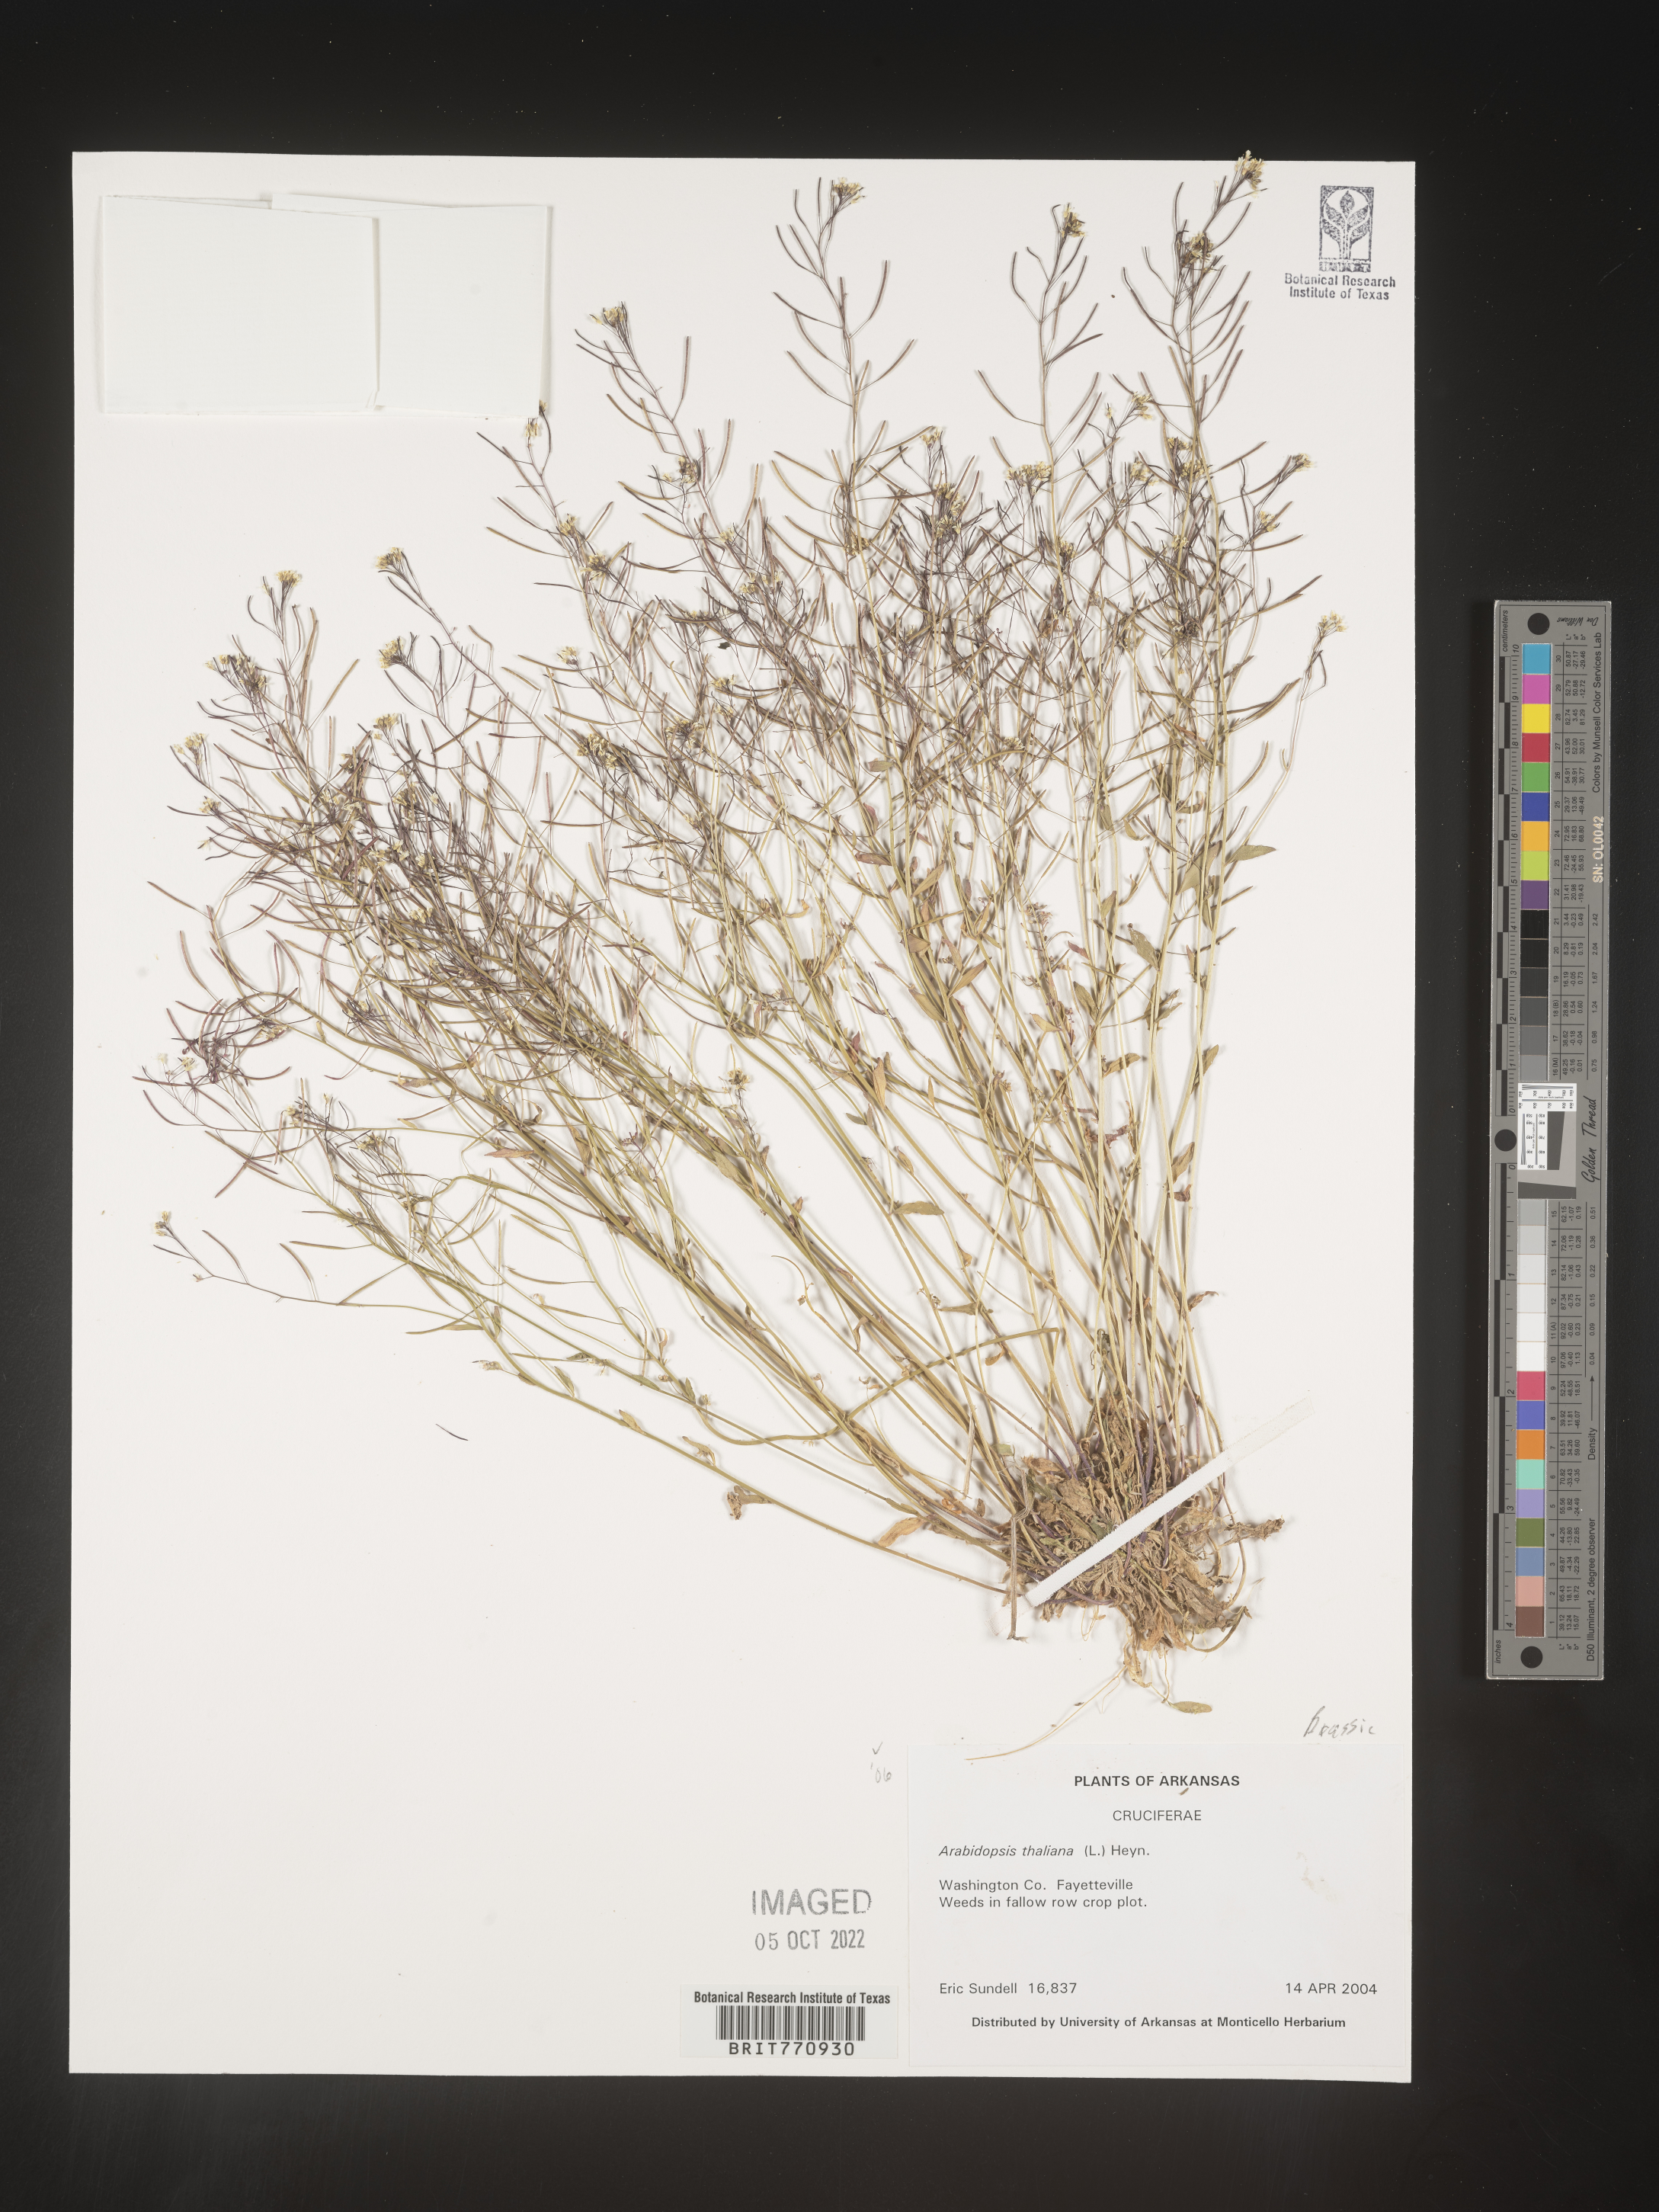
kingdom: Plantae
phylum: Tracheophyta
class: Magnoliopsida
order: Brassicales
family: Brassicaceae
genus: Arabidopsis
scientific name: Arabidopsis thaliana
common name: Thale cress
